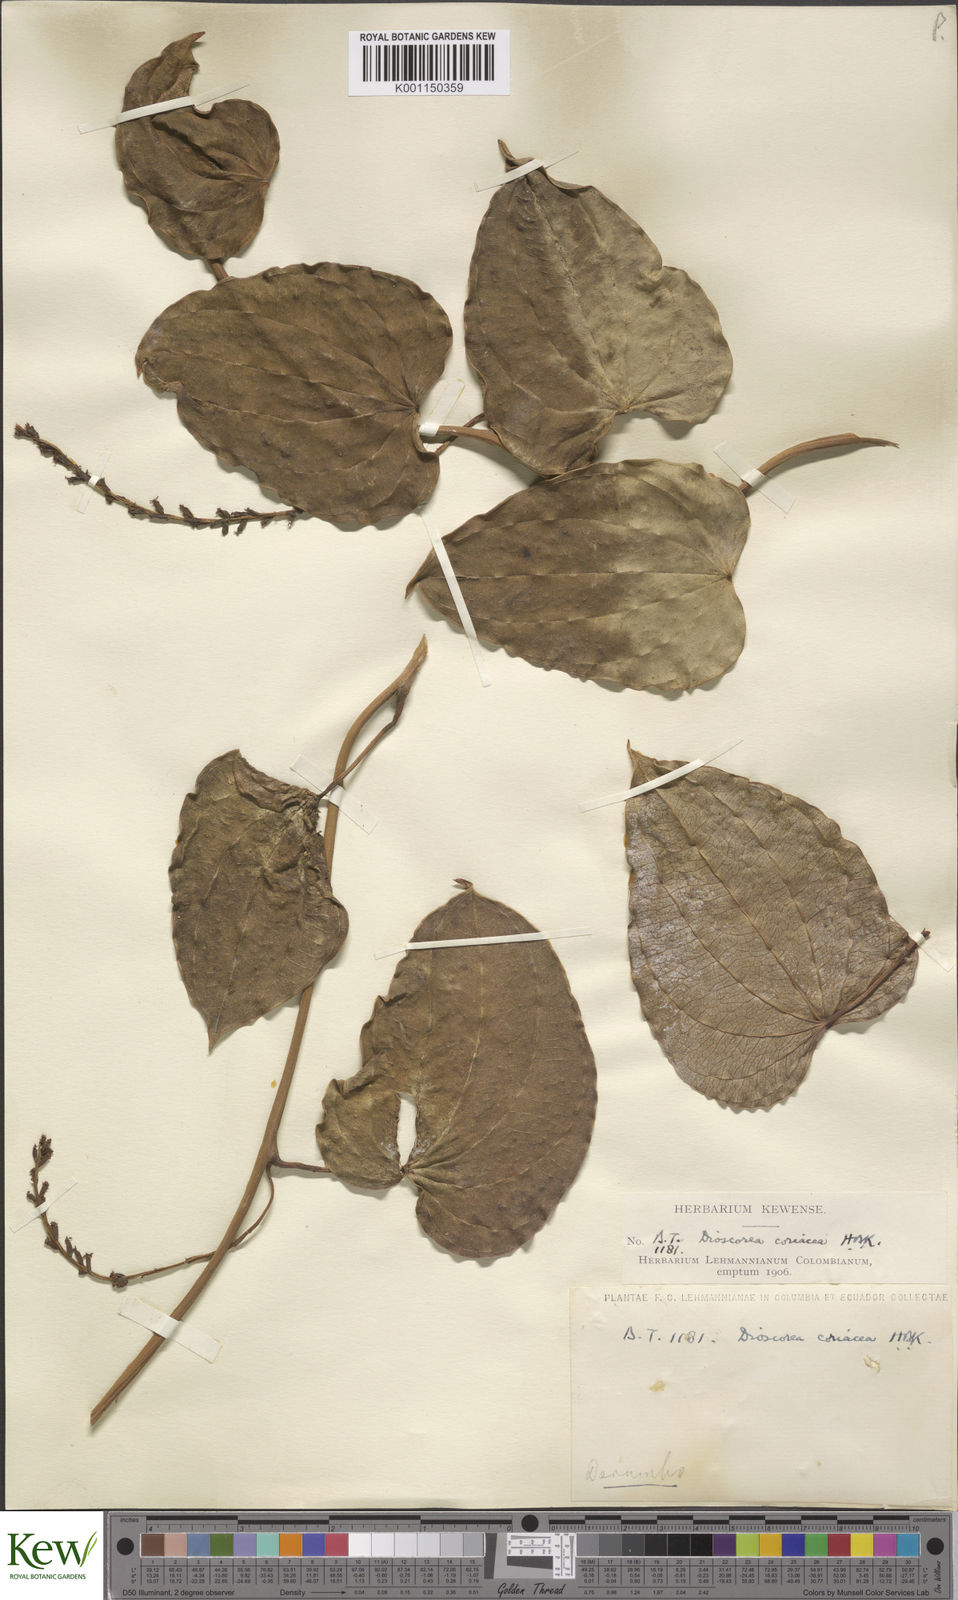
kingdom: Plantae
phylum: Tracheophyta
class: Liliopsida
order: Dioscoreales
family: Dioscoreaceae
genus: Dioscorea
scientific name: Dioscorea coriacea
